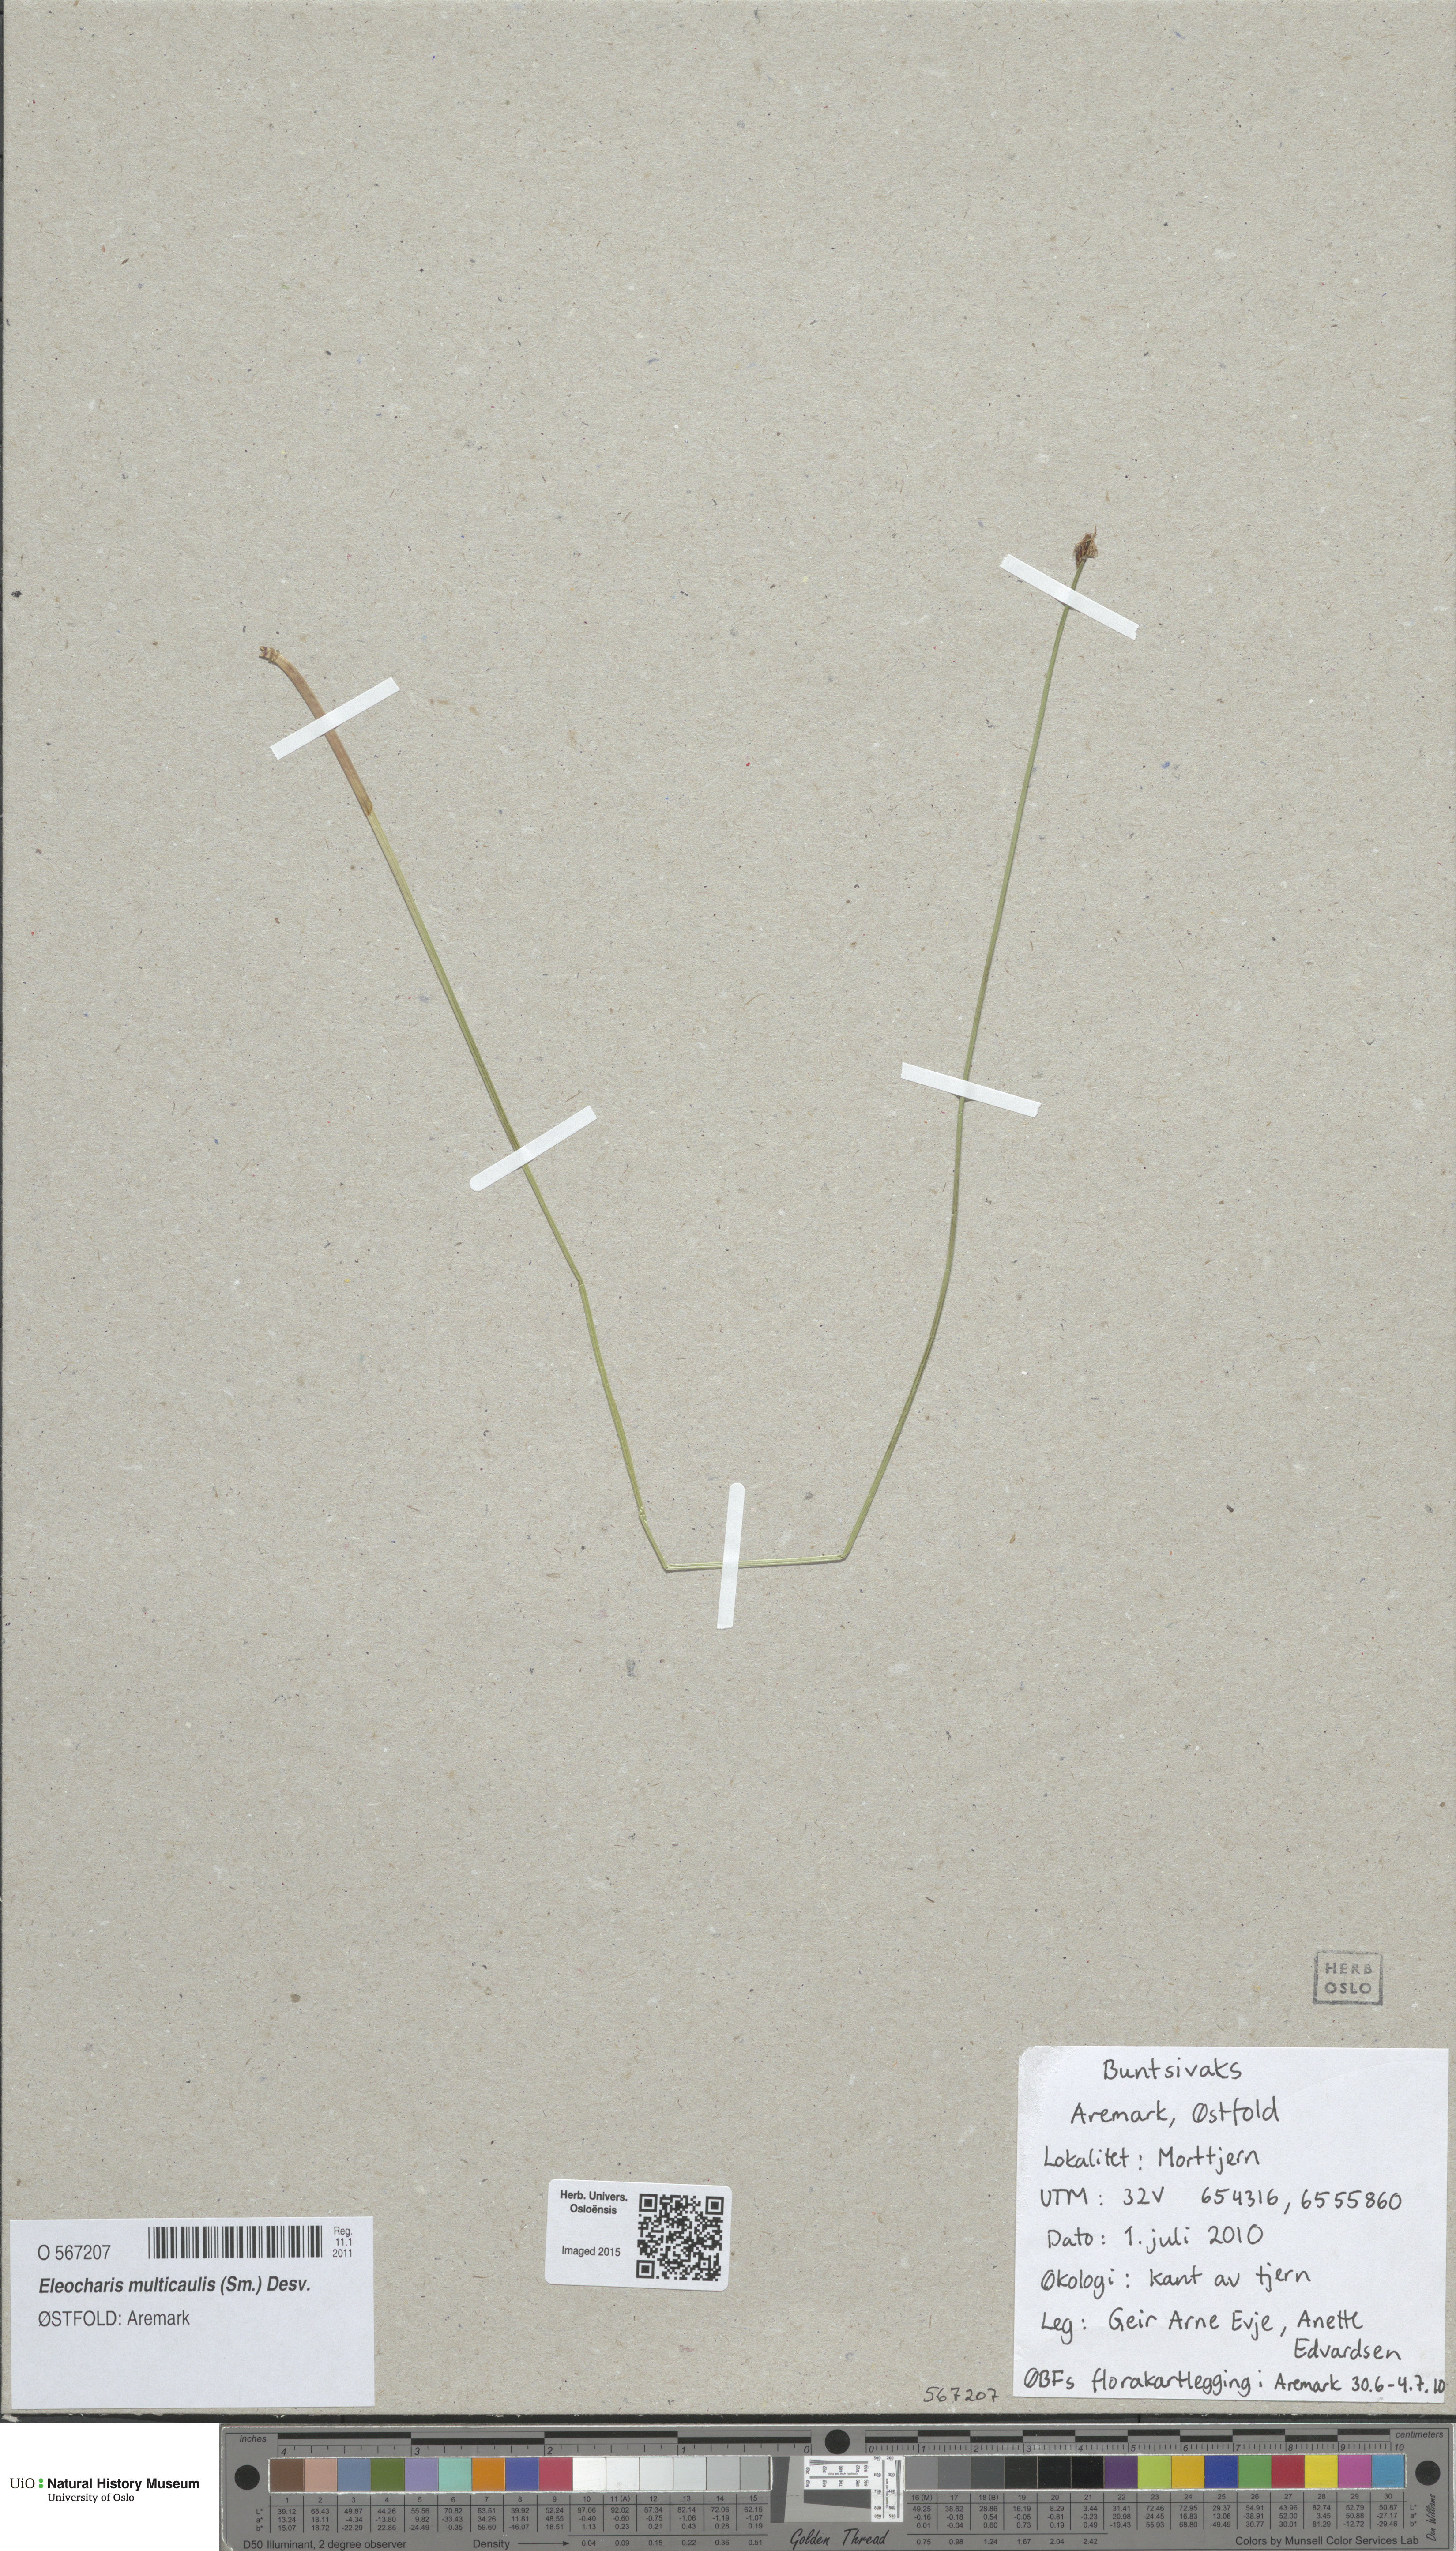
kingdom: Plantae
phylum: Tracheophyta
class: Liliopsida
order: Poales
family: Cyperaceae
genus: Eleocharis
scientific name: Eleocharis multicaulis
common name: Many-stalked spike-rush
